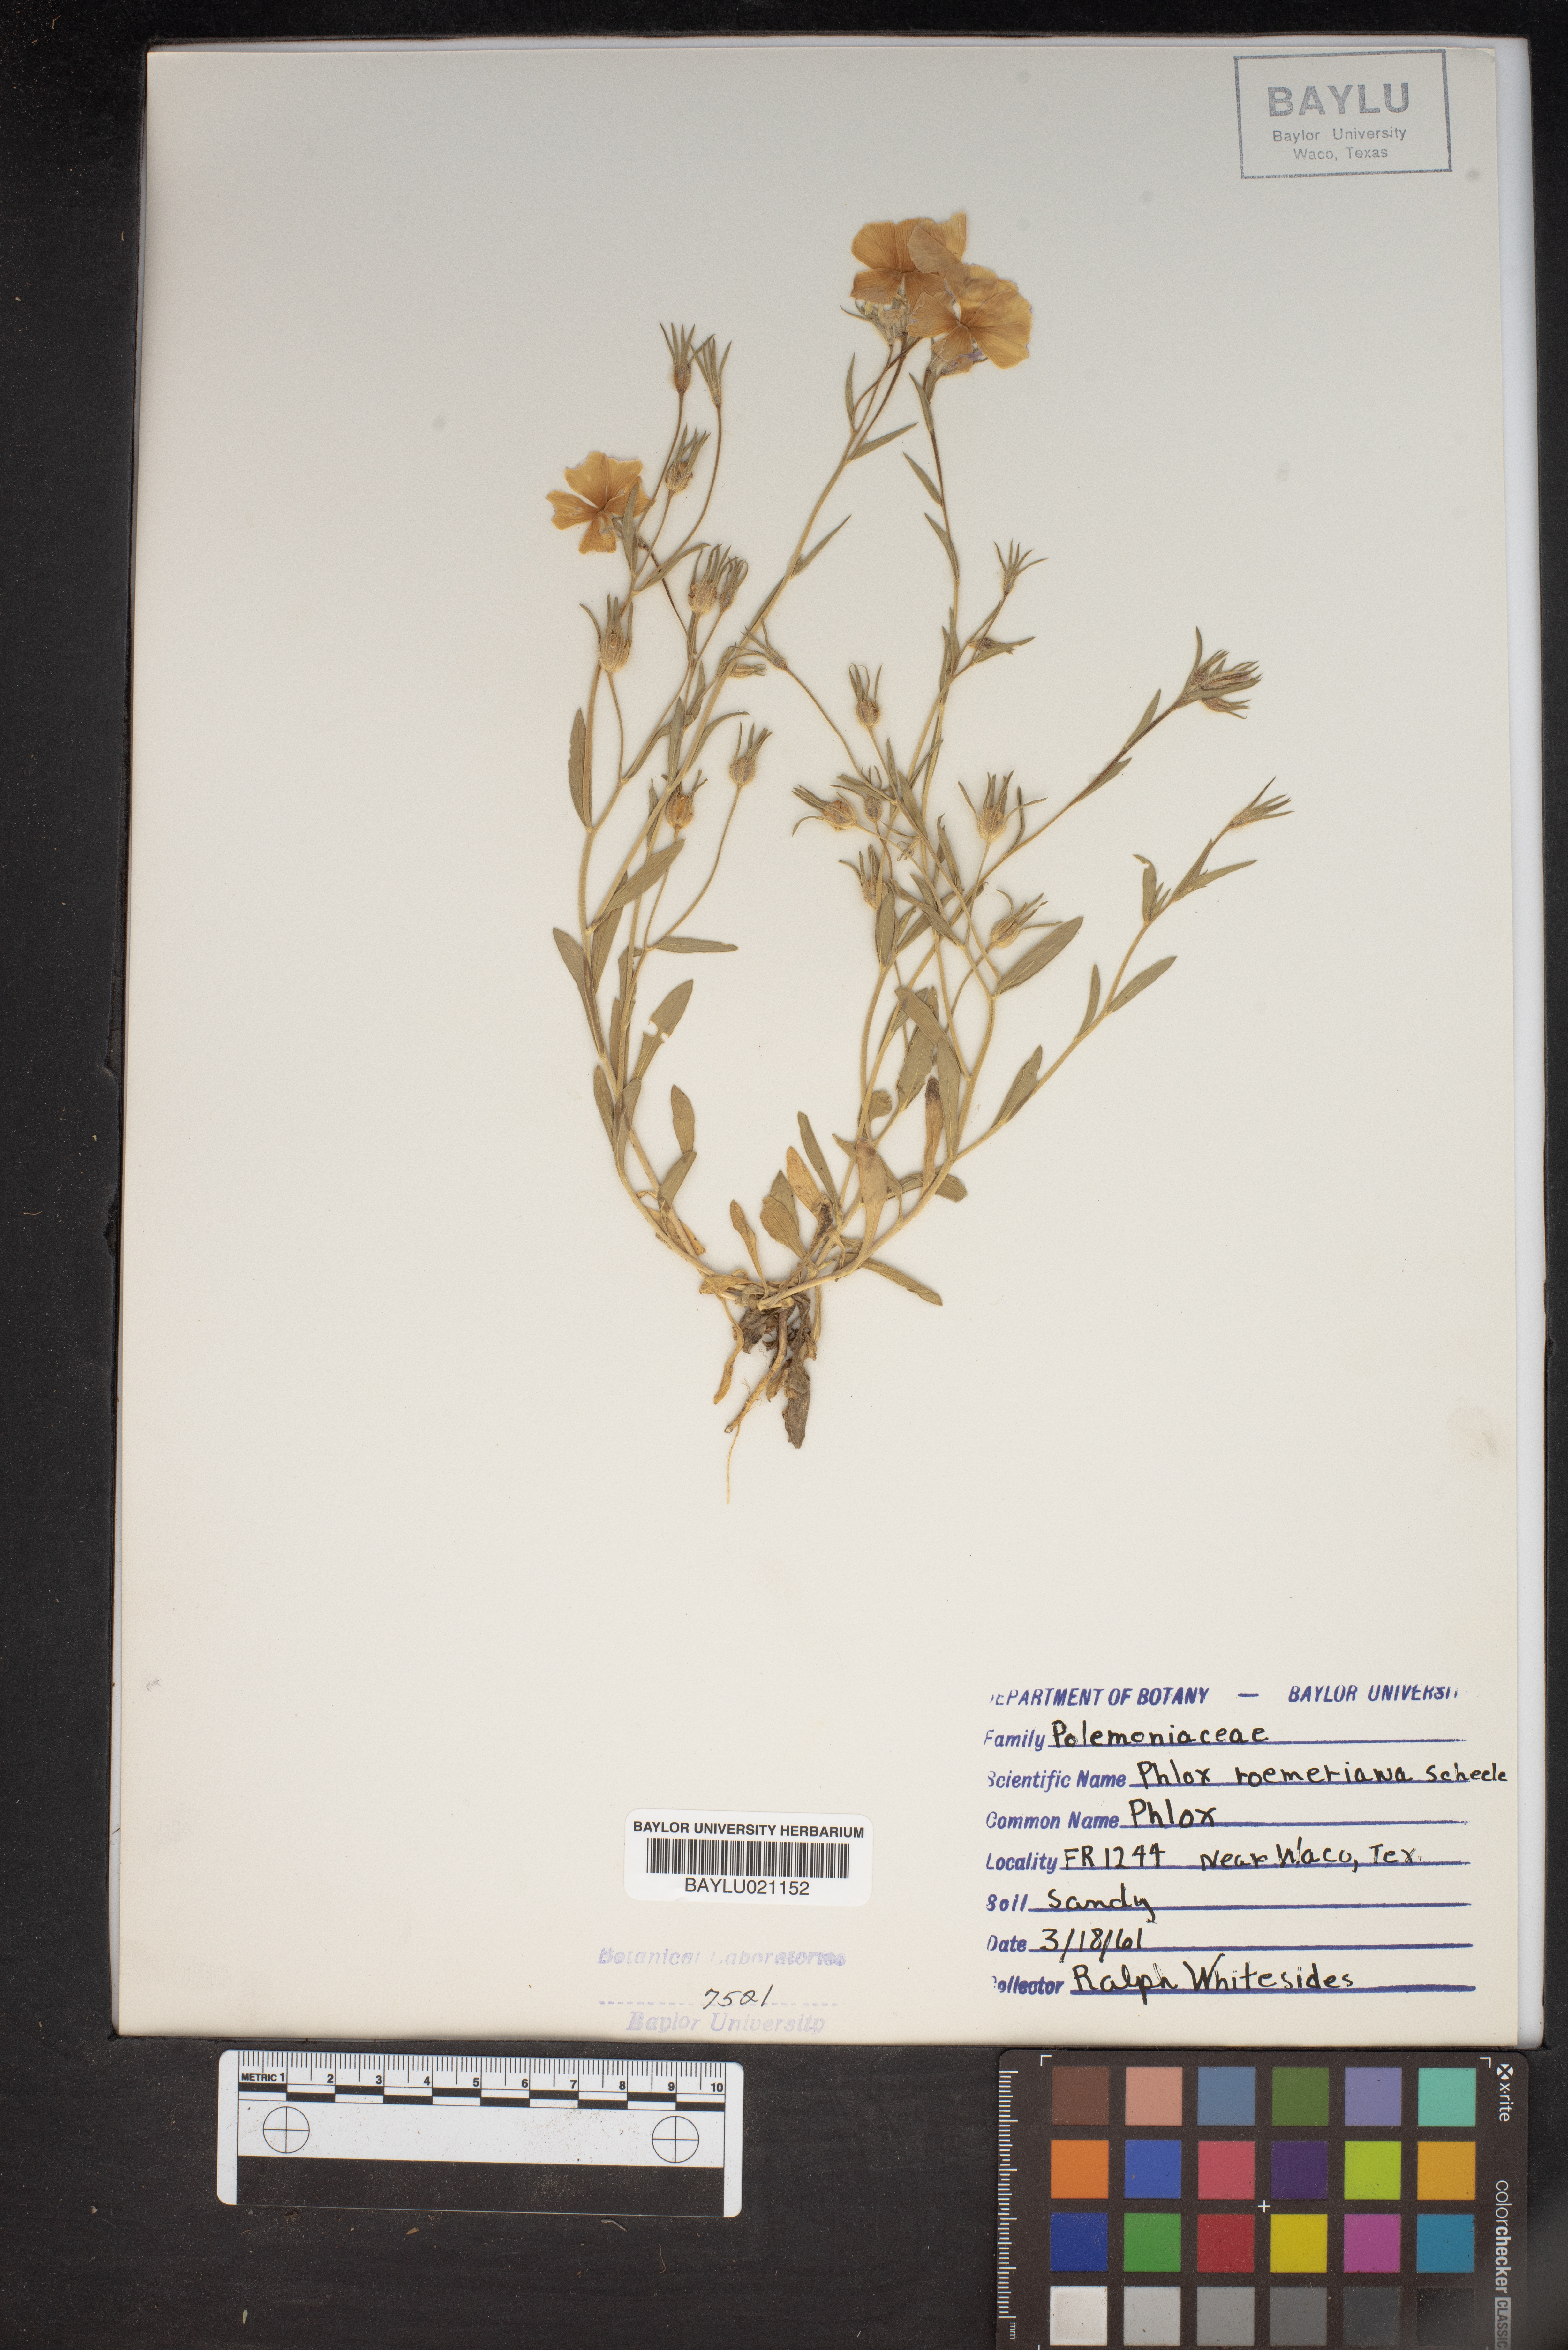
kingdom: Plantae
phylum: Tracheophyta
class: Magnoliopsida
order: Ericales
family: Polemoniaceae
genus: Phlox
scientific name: Phlox roemeriana
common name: Roemer's phlox
